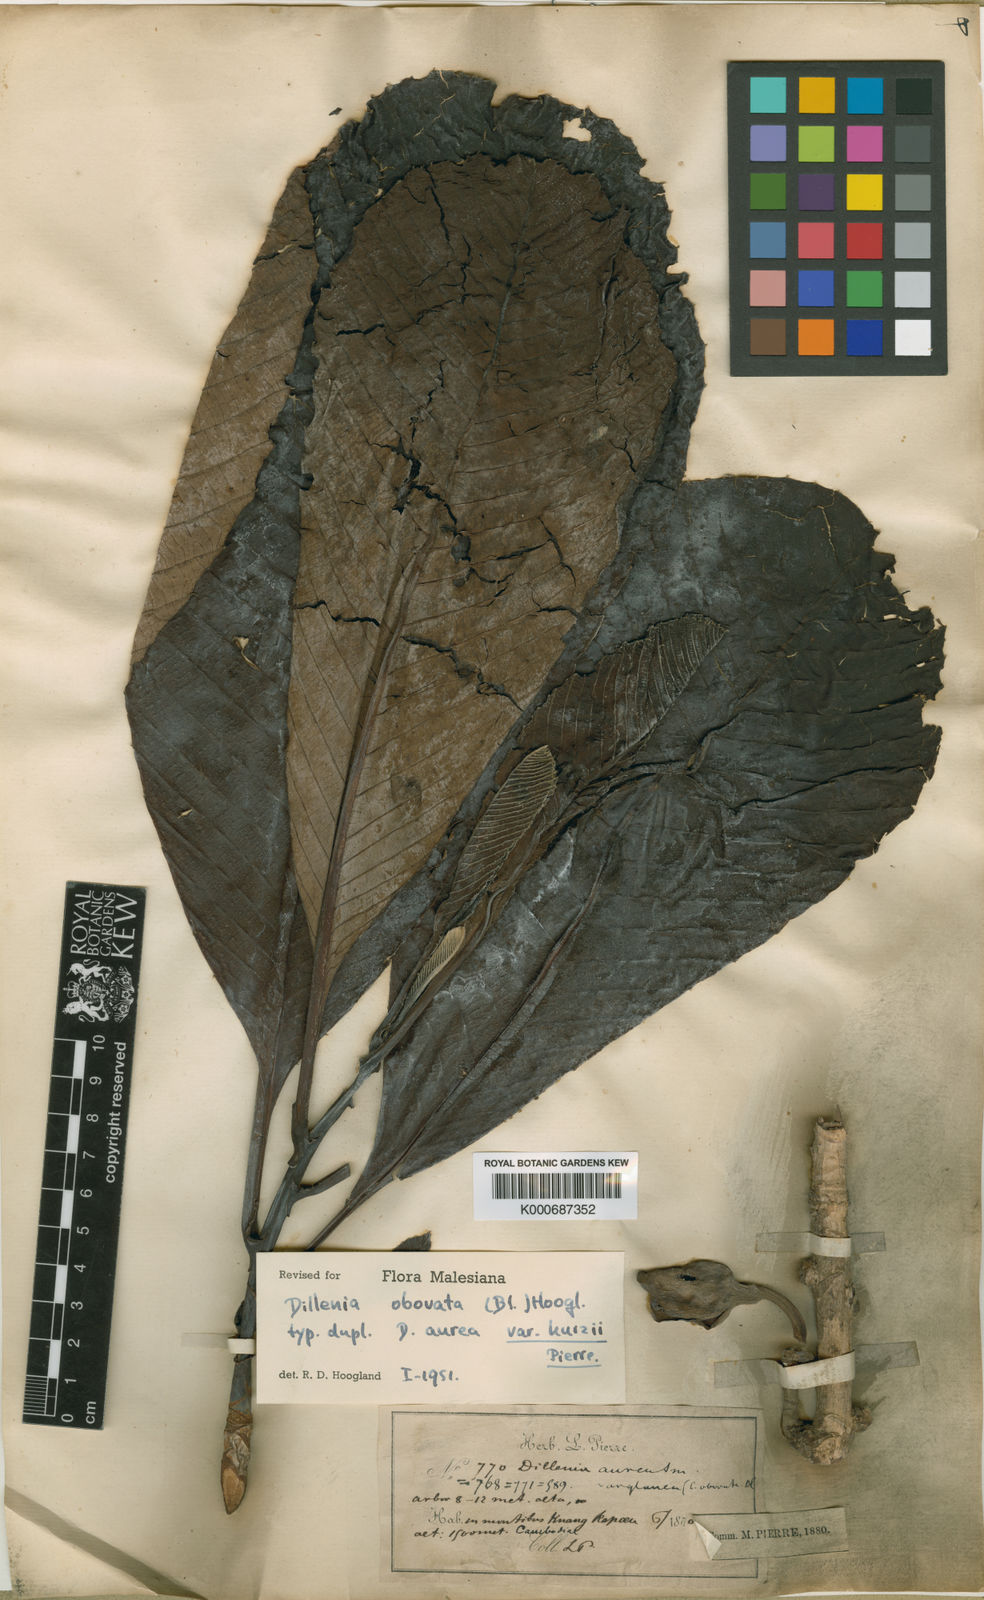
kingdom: Plantae
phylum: Tracheophyta
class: Magnoliopsida
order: Dilleniales
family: Dilleniaceae
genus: Dillenia
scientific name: Dillenia obovata
